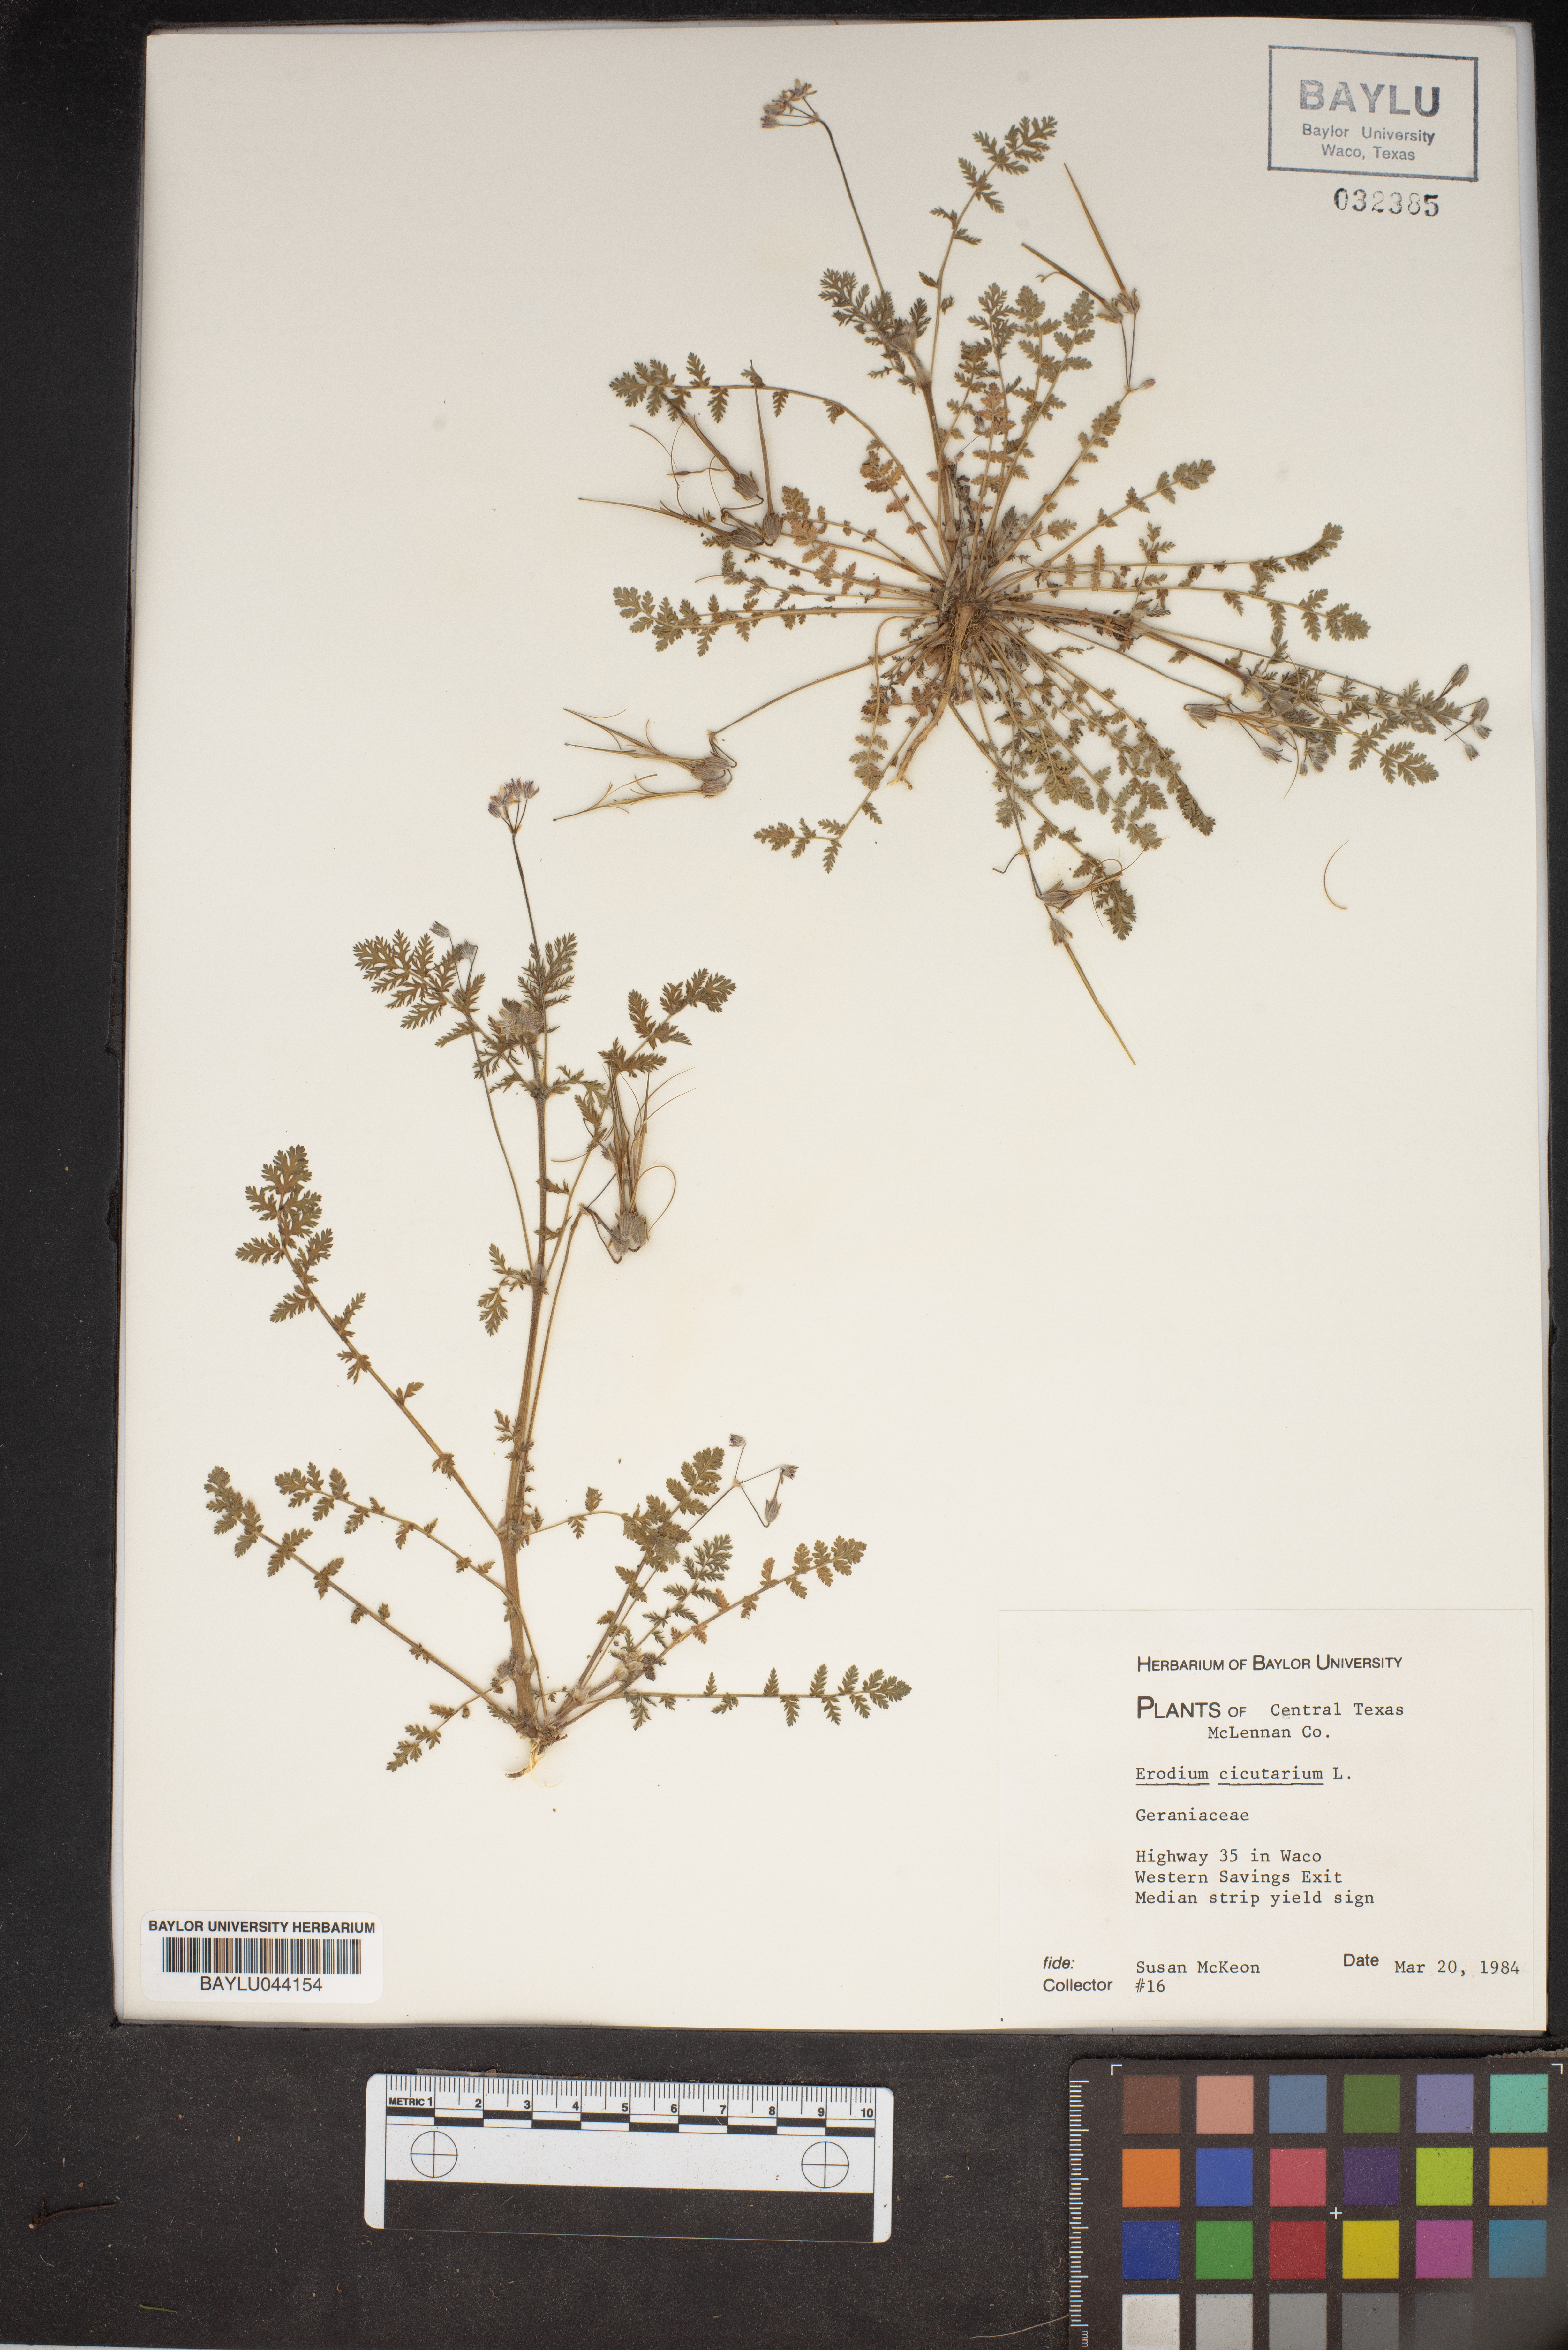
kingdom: Plantae
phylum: Tracheophyta
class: Magnoliopsida
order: Geraniales
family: Geraniaceae
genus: Erodium
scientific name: Erodium cicutarium
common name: Common stork's-bill
